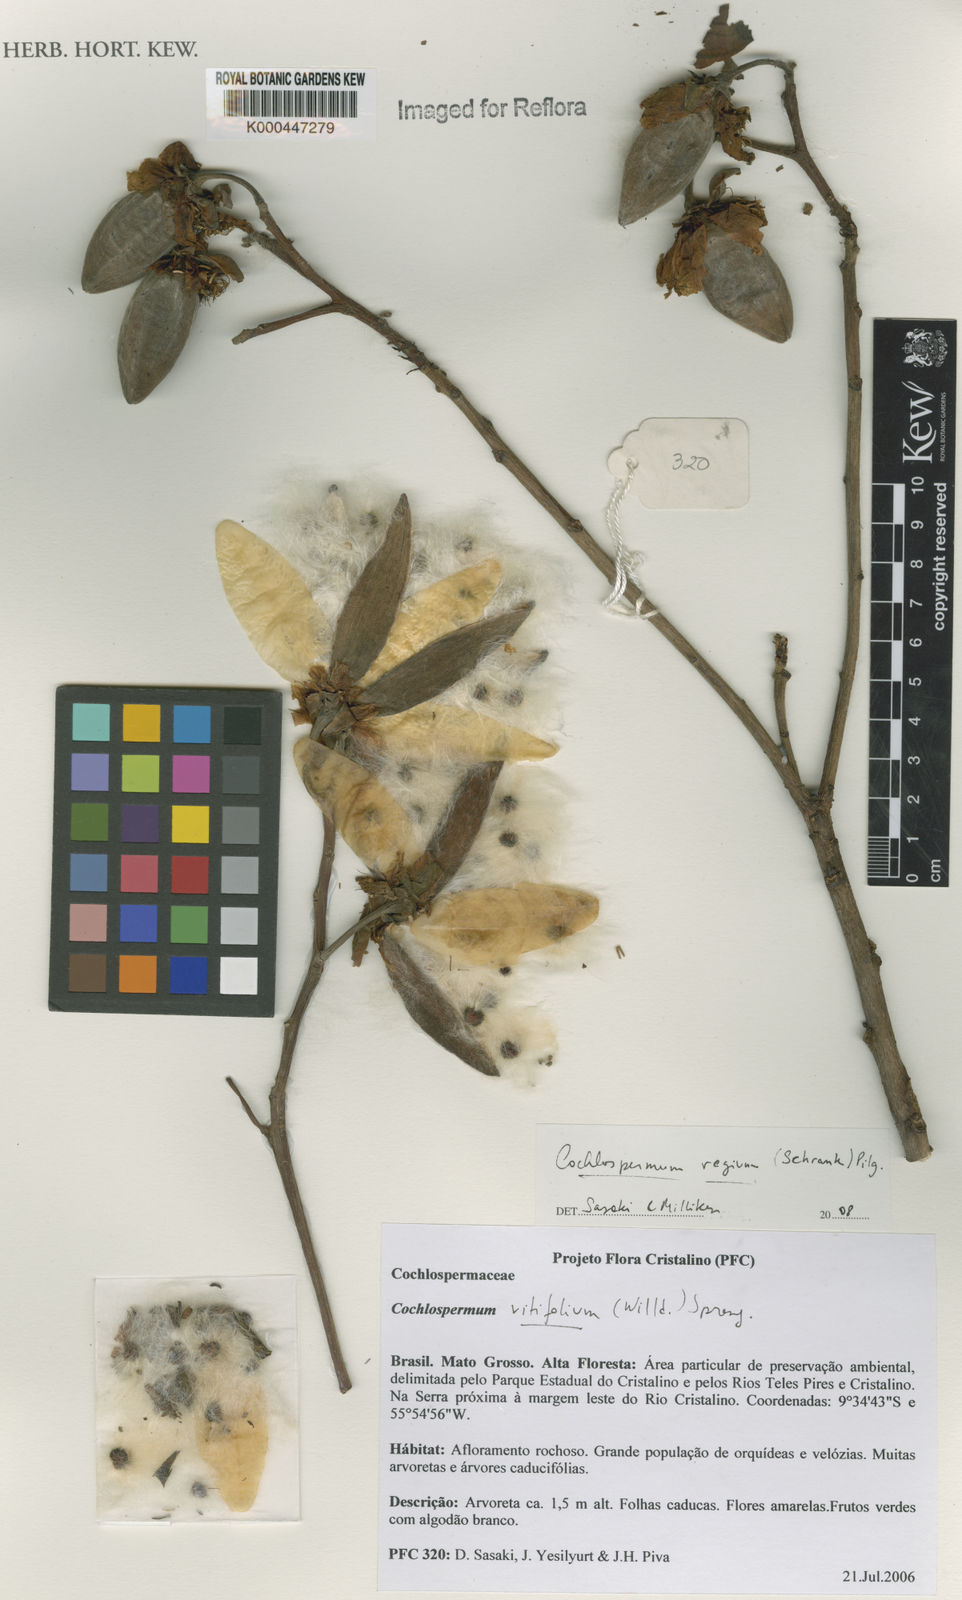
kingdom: Plantae
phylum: Tracheophyta
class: Magnoliopsida
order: Malvales
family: Cochlospermaceae
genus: Cochlospermum
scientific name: Cochlospermum regium
